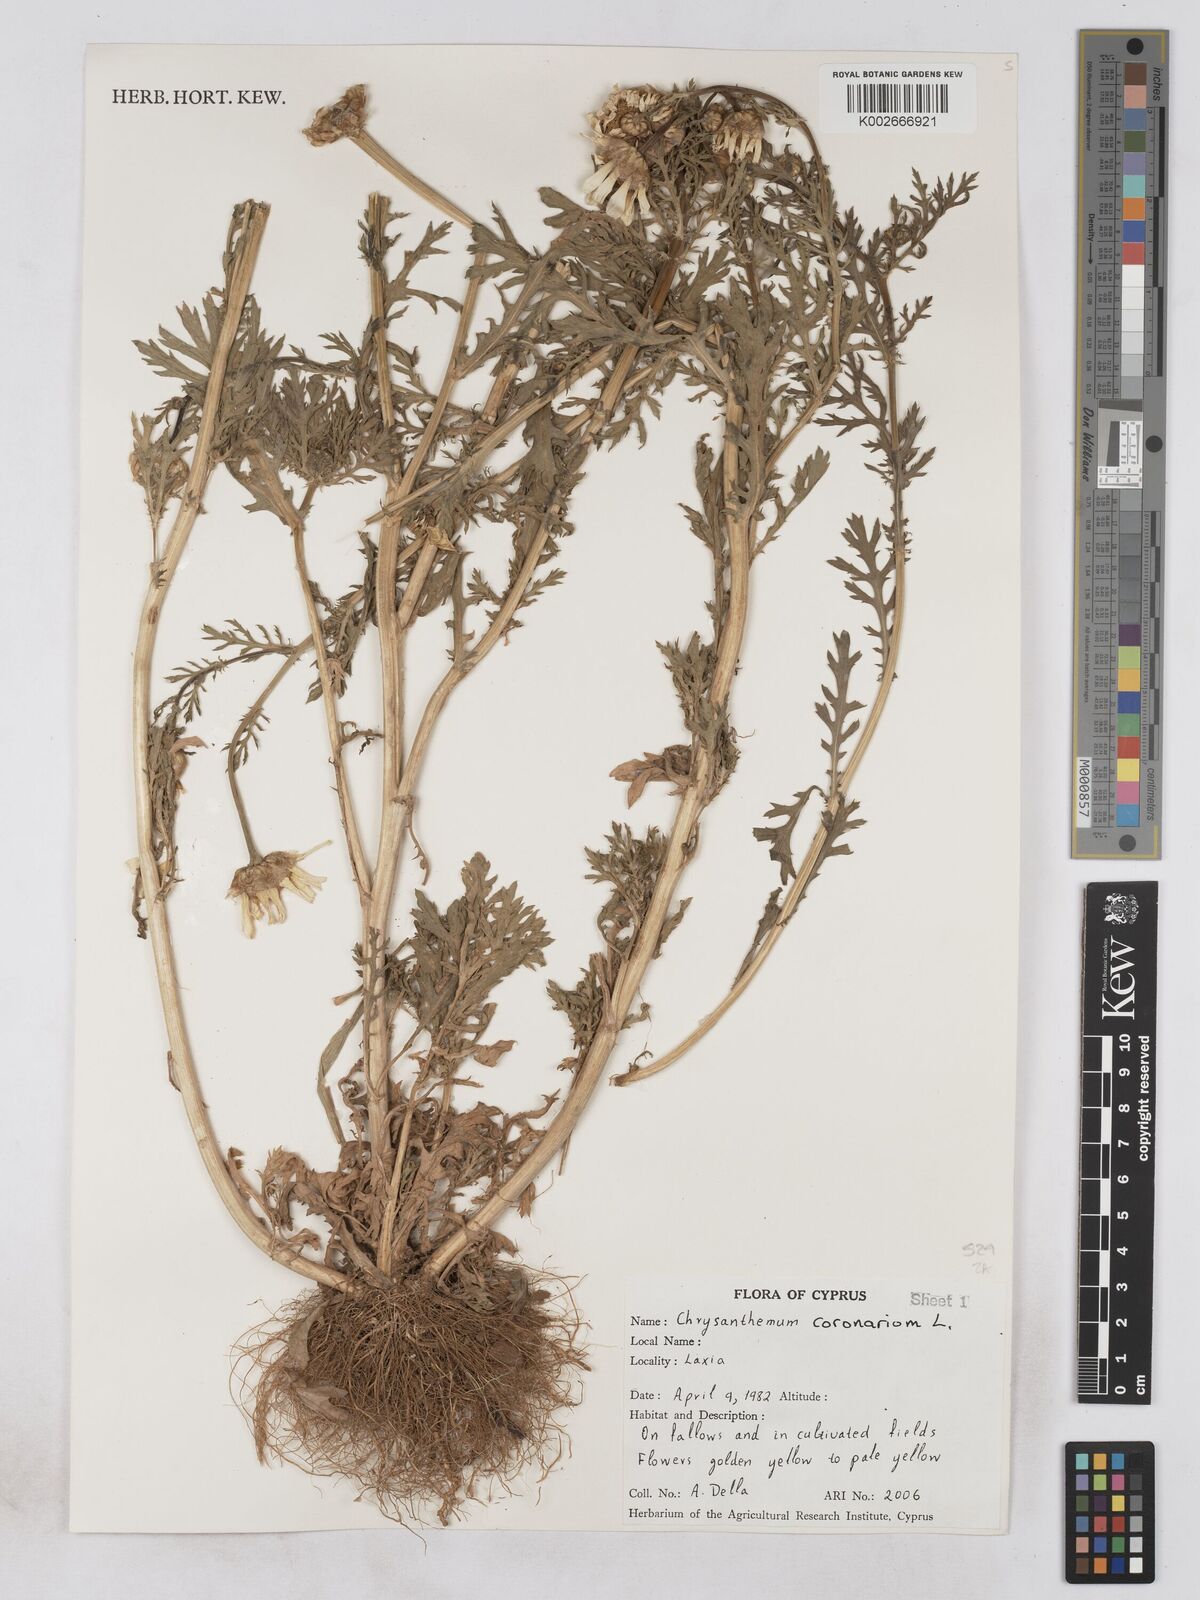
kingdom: Plantae
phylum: Tracheophyta
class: Magnoliopsida
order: Asterales
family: Asteraceae
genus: Glebionis
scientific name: Glebionis coronaria
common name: Crowndaisy
